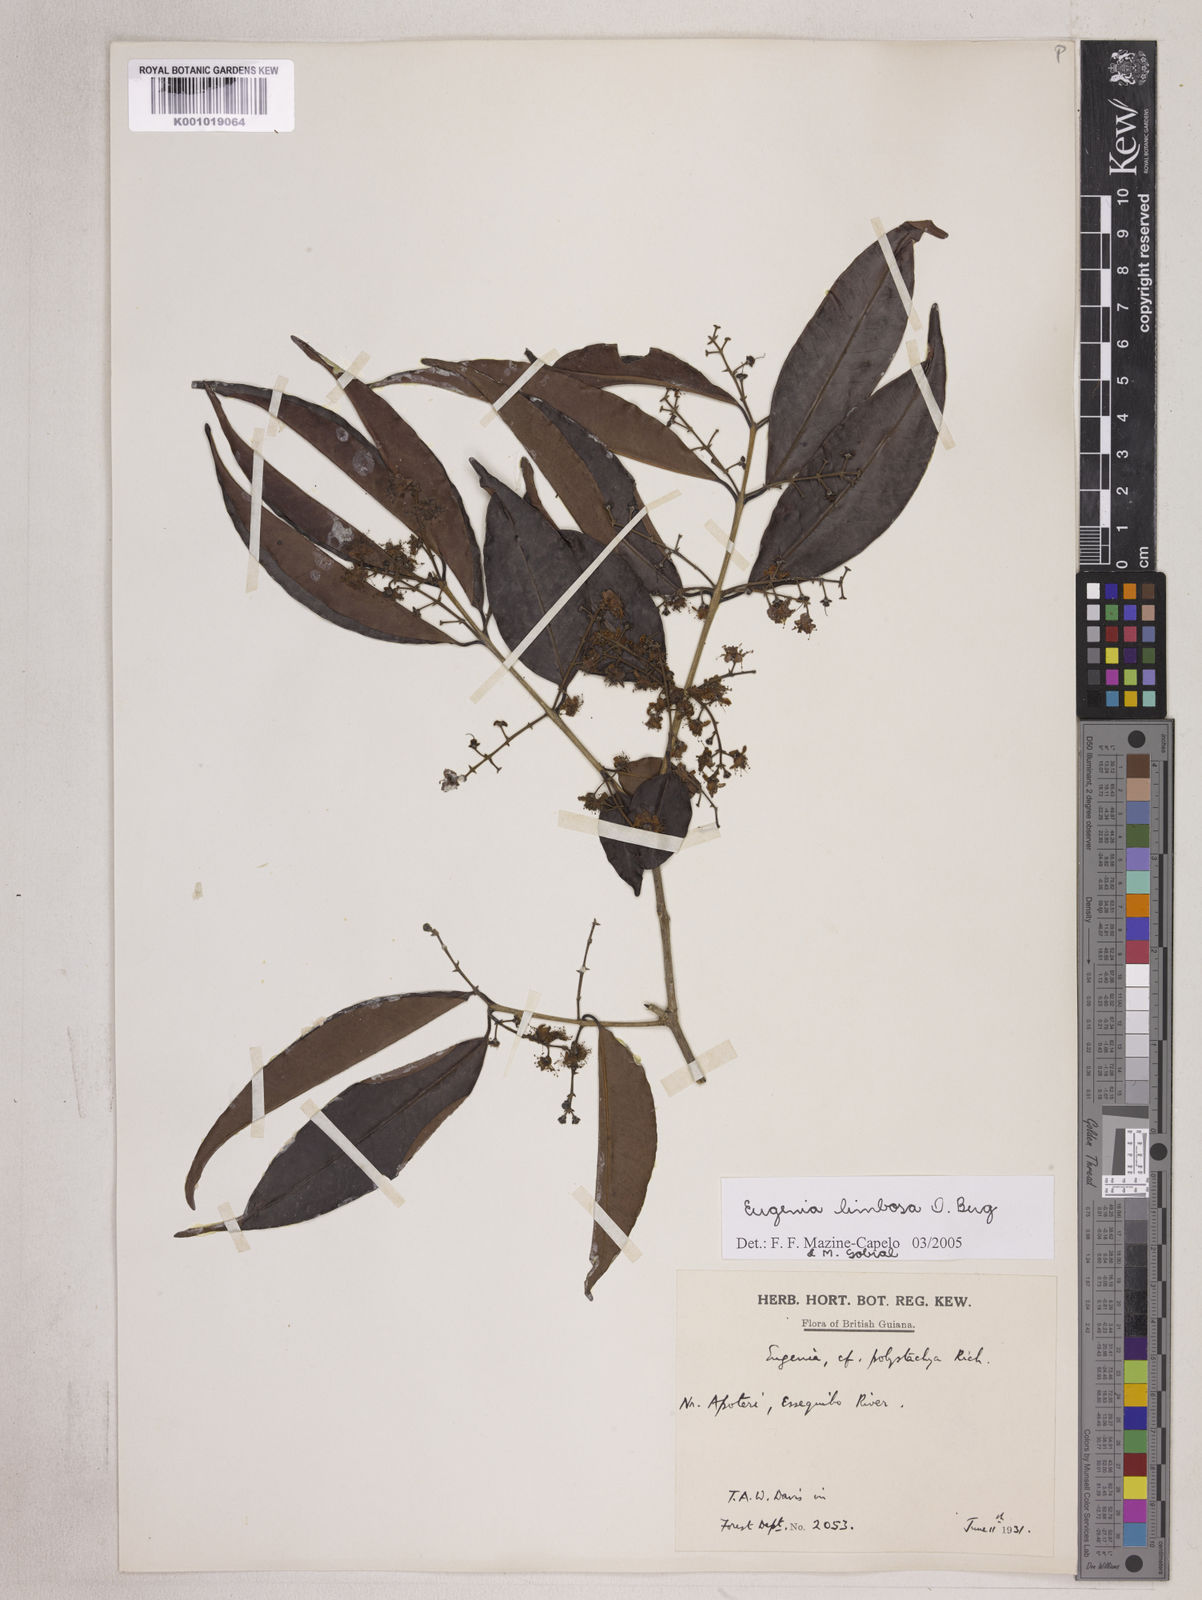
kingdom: Plantae
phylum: Tracheophyta
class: Magnoliopsida
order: Myrtales
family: Myrtaceae
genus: Eugenia
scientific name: Eugenia limbosa
